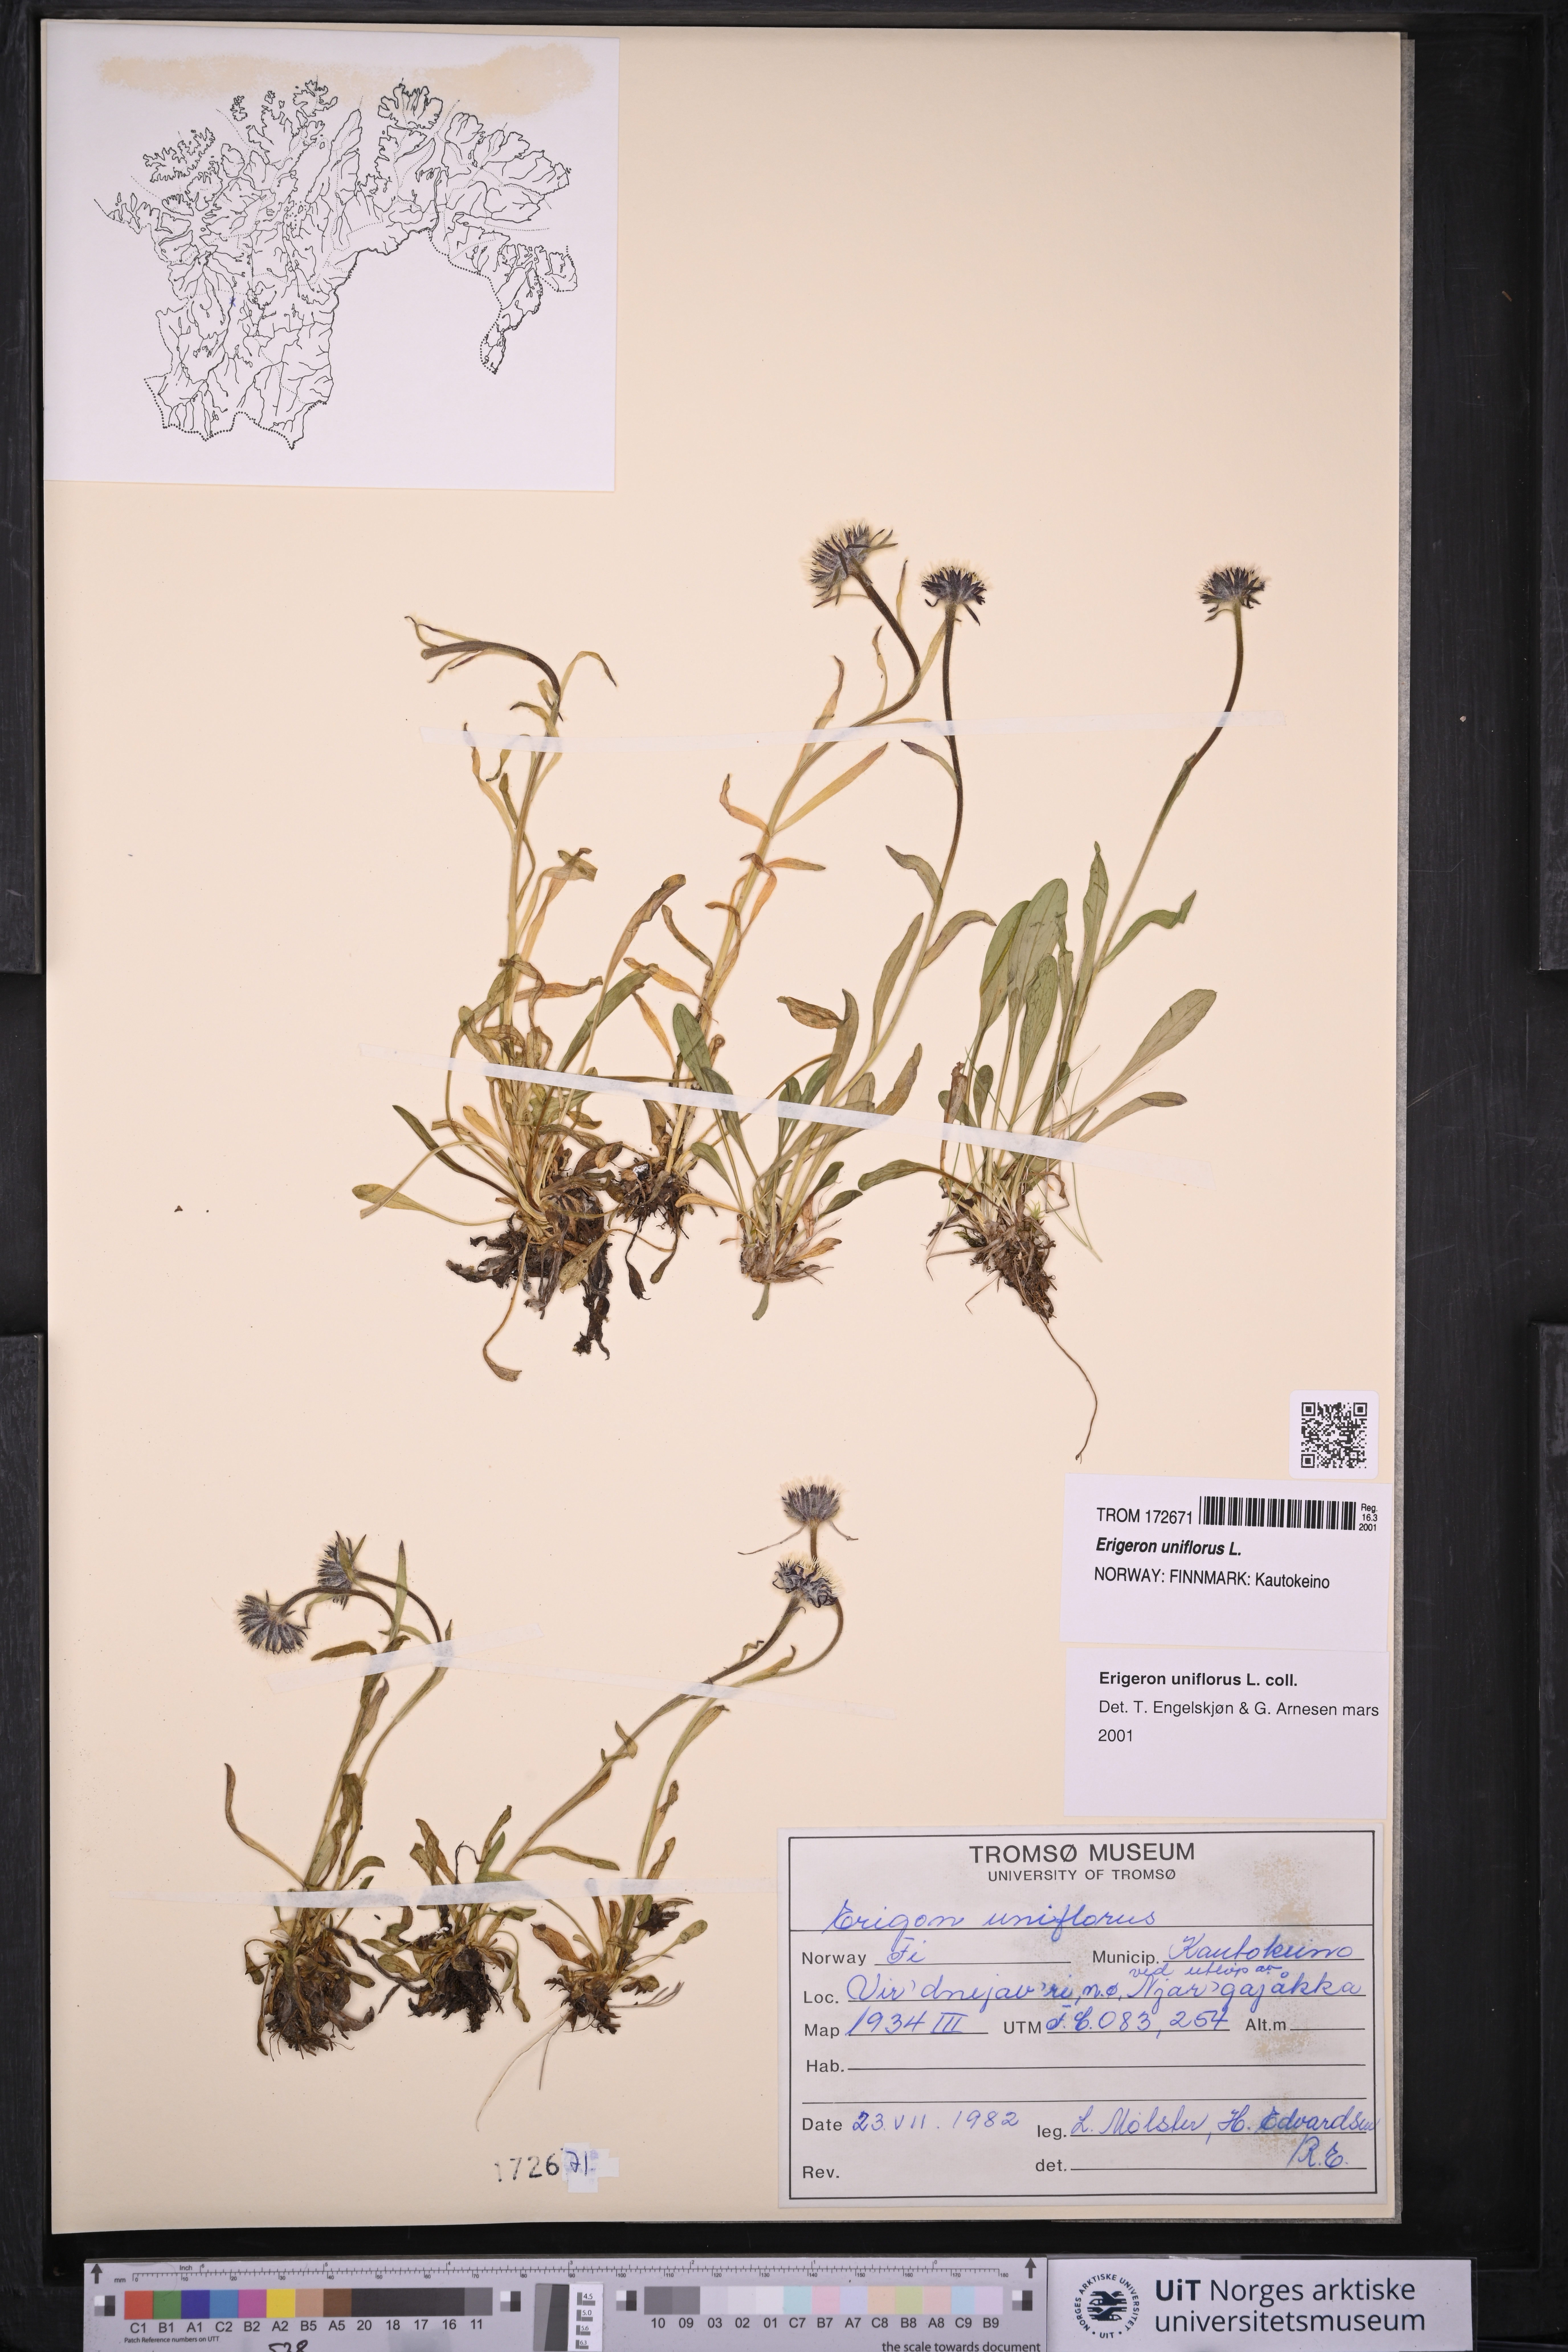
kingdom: Plantae
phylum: Tracheophyta
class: Magnoliopsida
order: Asterales
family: Asteraceae
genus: Erigeron
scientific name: Erigeron uniflorus
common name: Northern daisy
